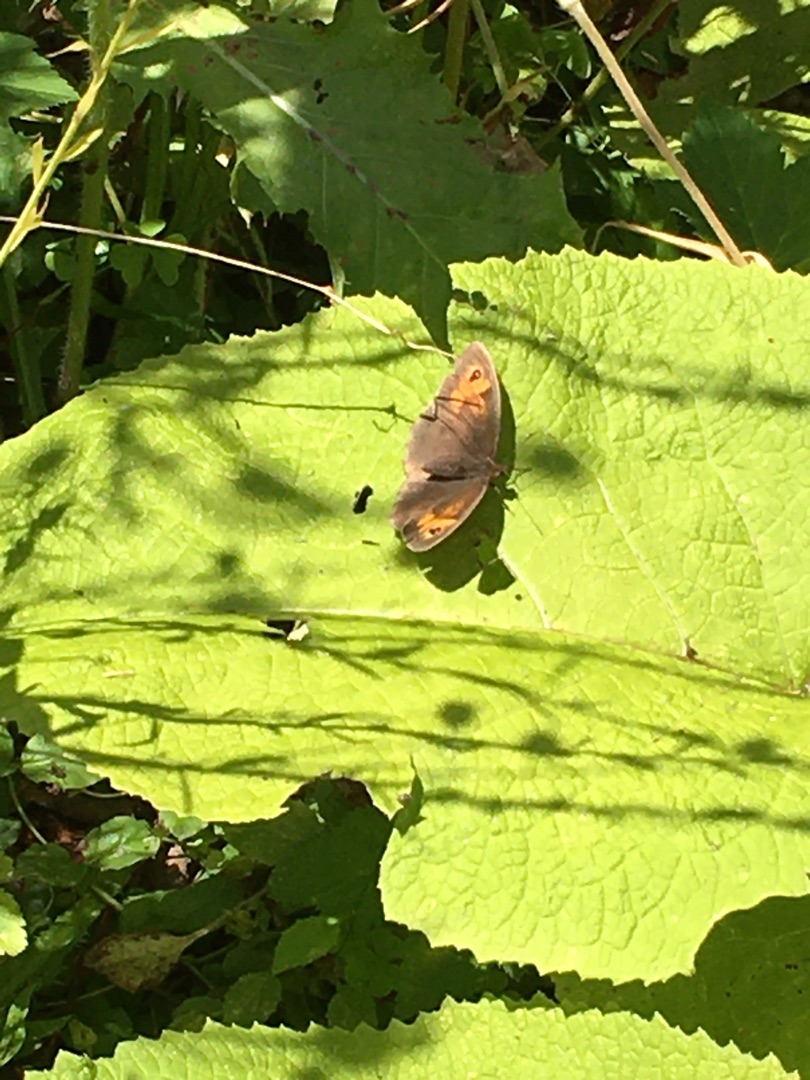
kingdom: Animalia
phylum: Arthropoda
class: Insecta
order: Lepidoptera
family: Nymphalidae
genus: Maniola
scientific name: Maniola jurtina
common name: Græsrandøje
